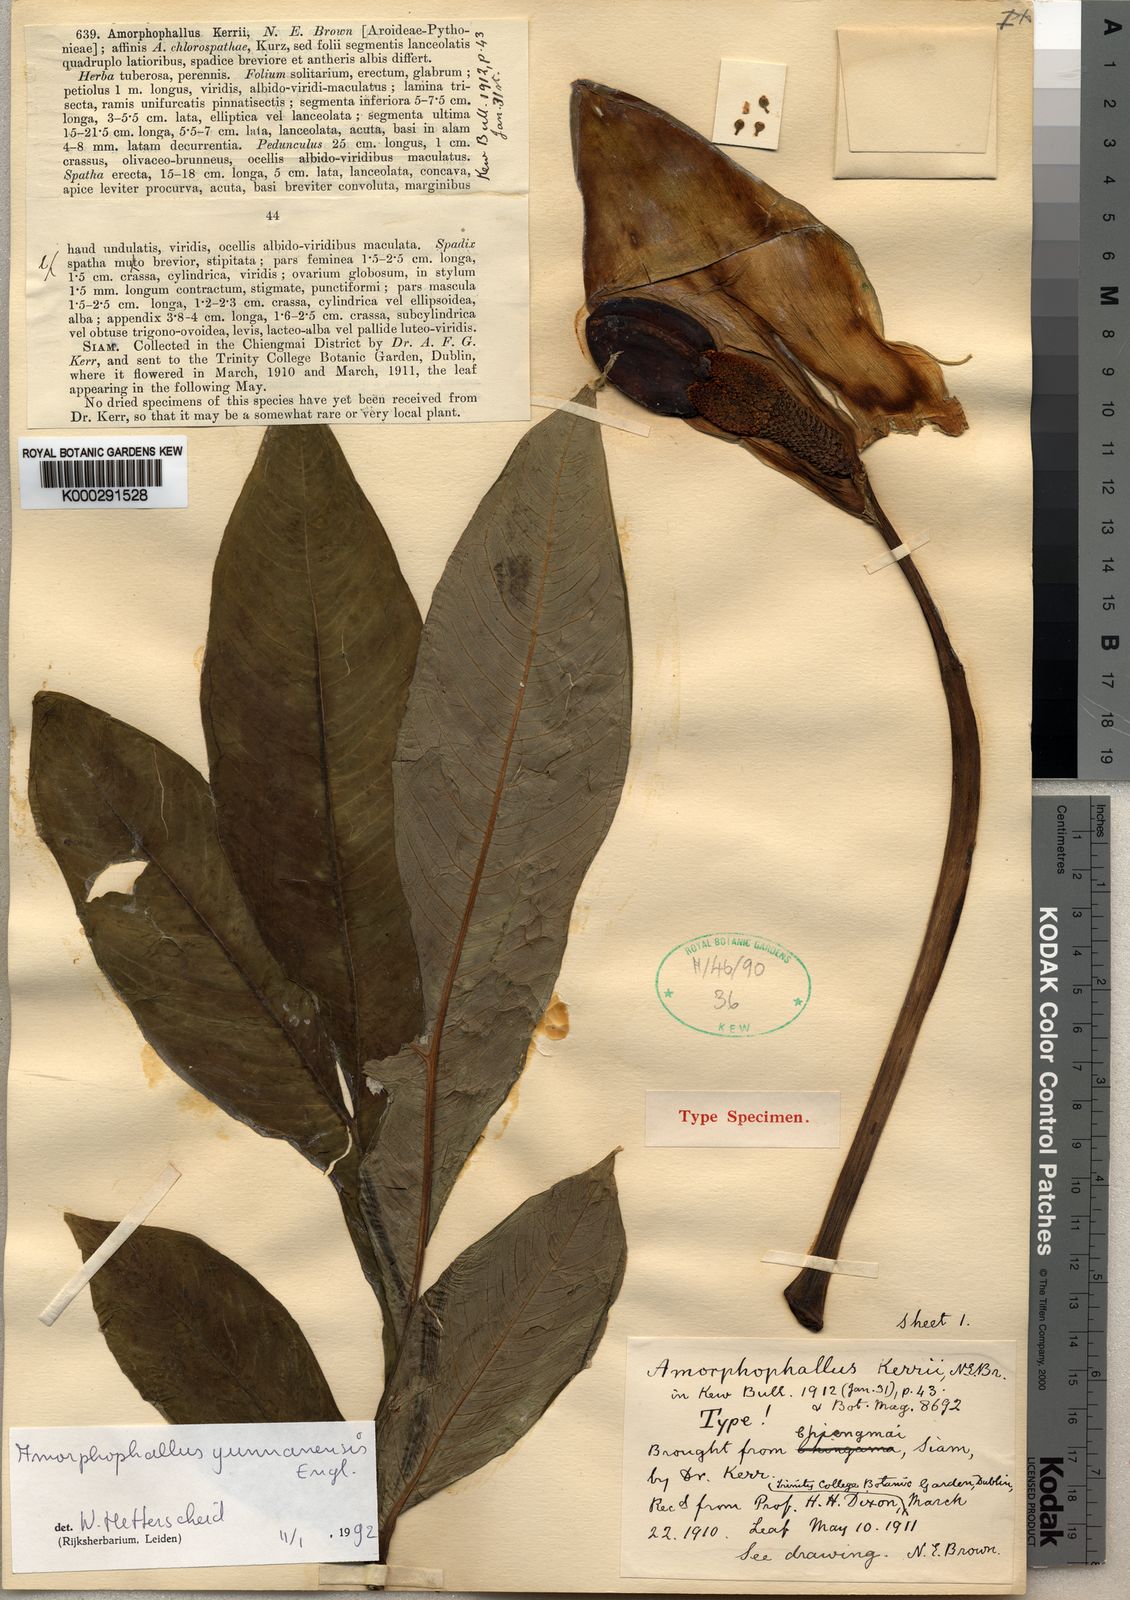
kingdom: Plantae
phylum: Tracheophyta
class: Liliopsida
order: Alismatales
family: Araceae
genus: Amorphophallus
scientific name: Amorphophallus yunnanensis
